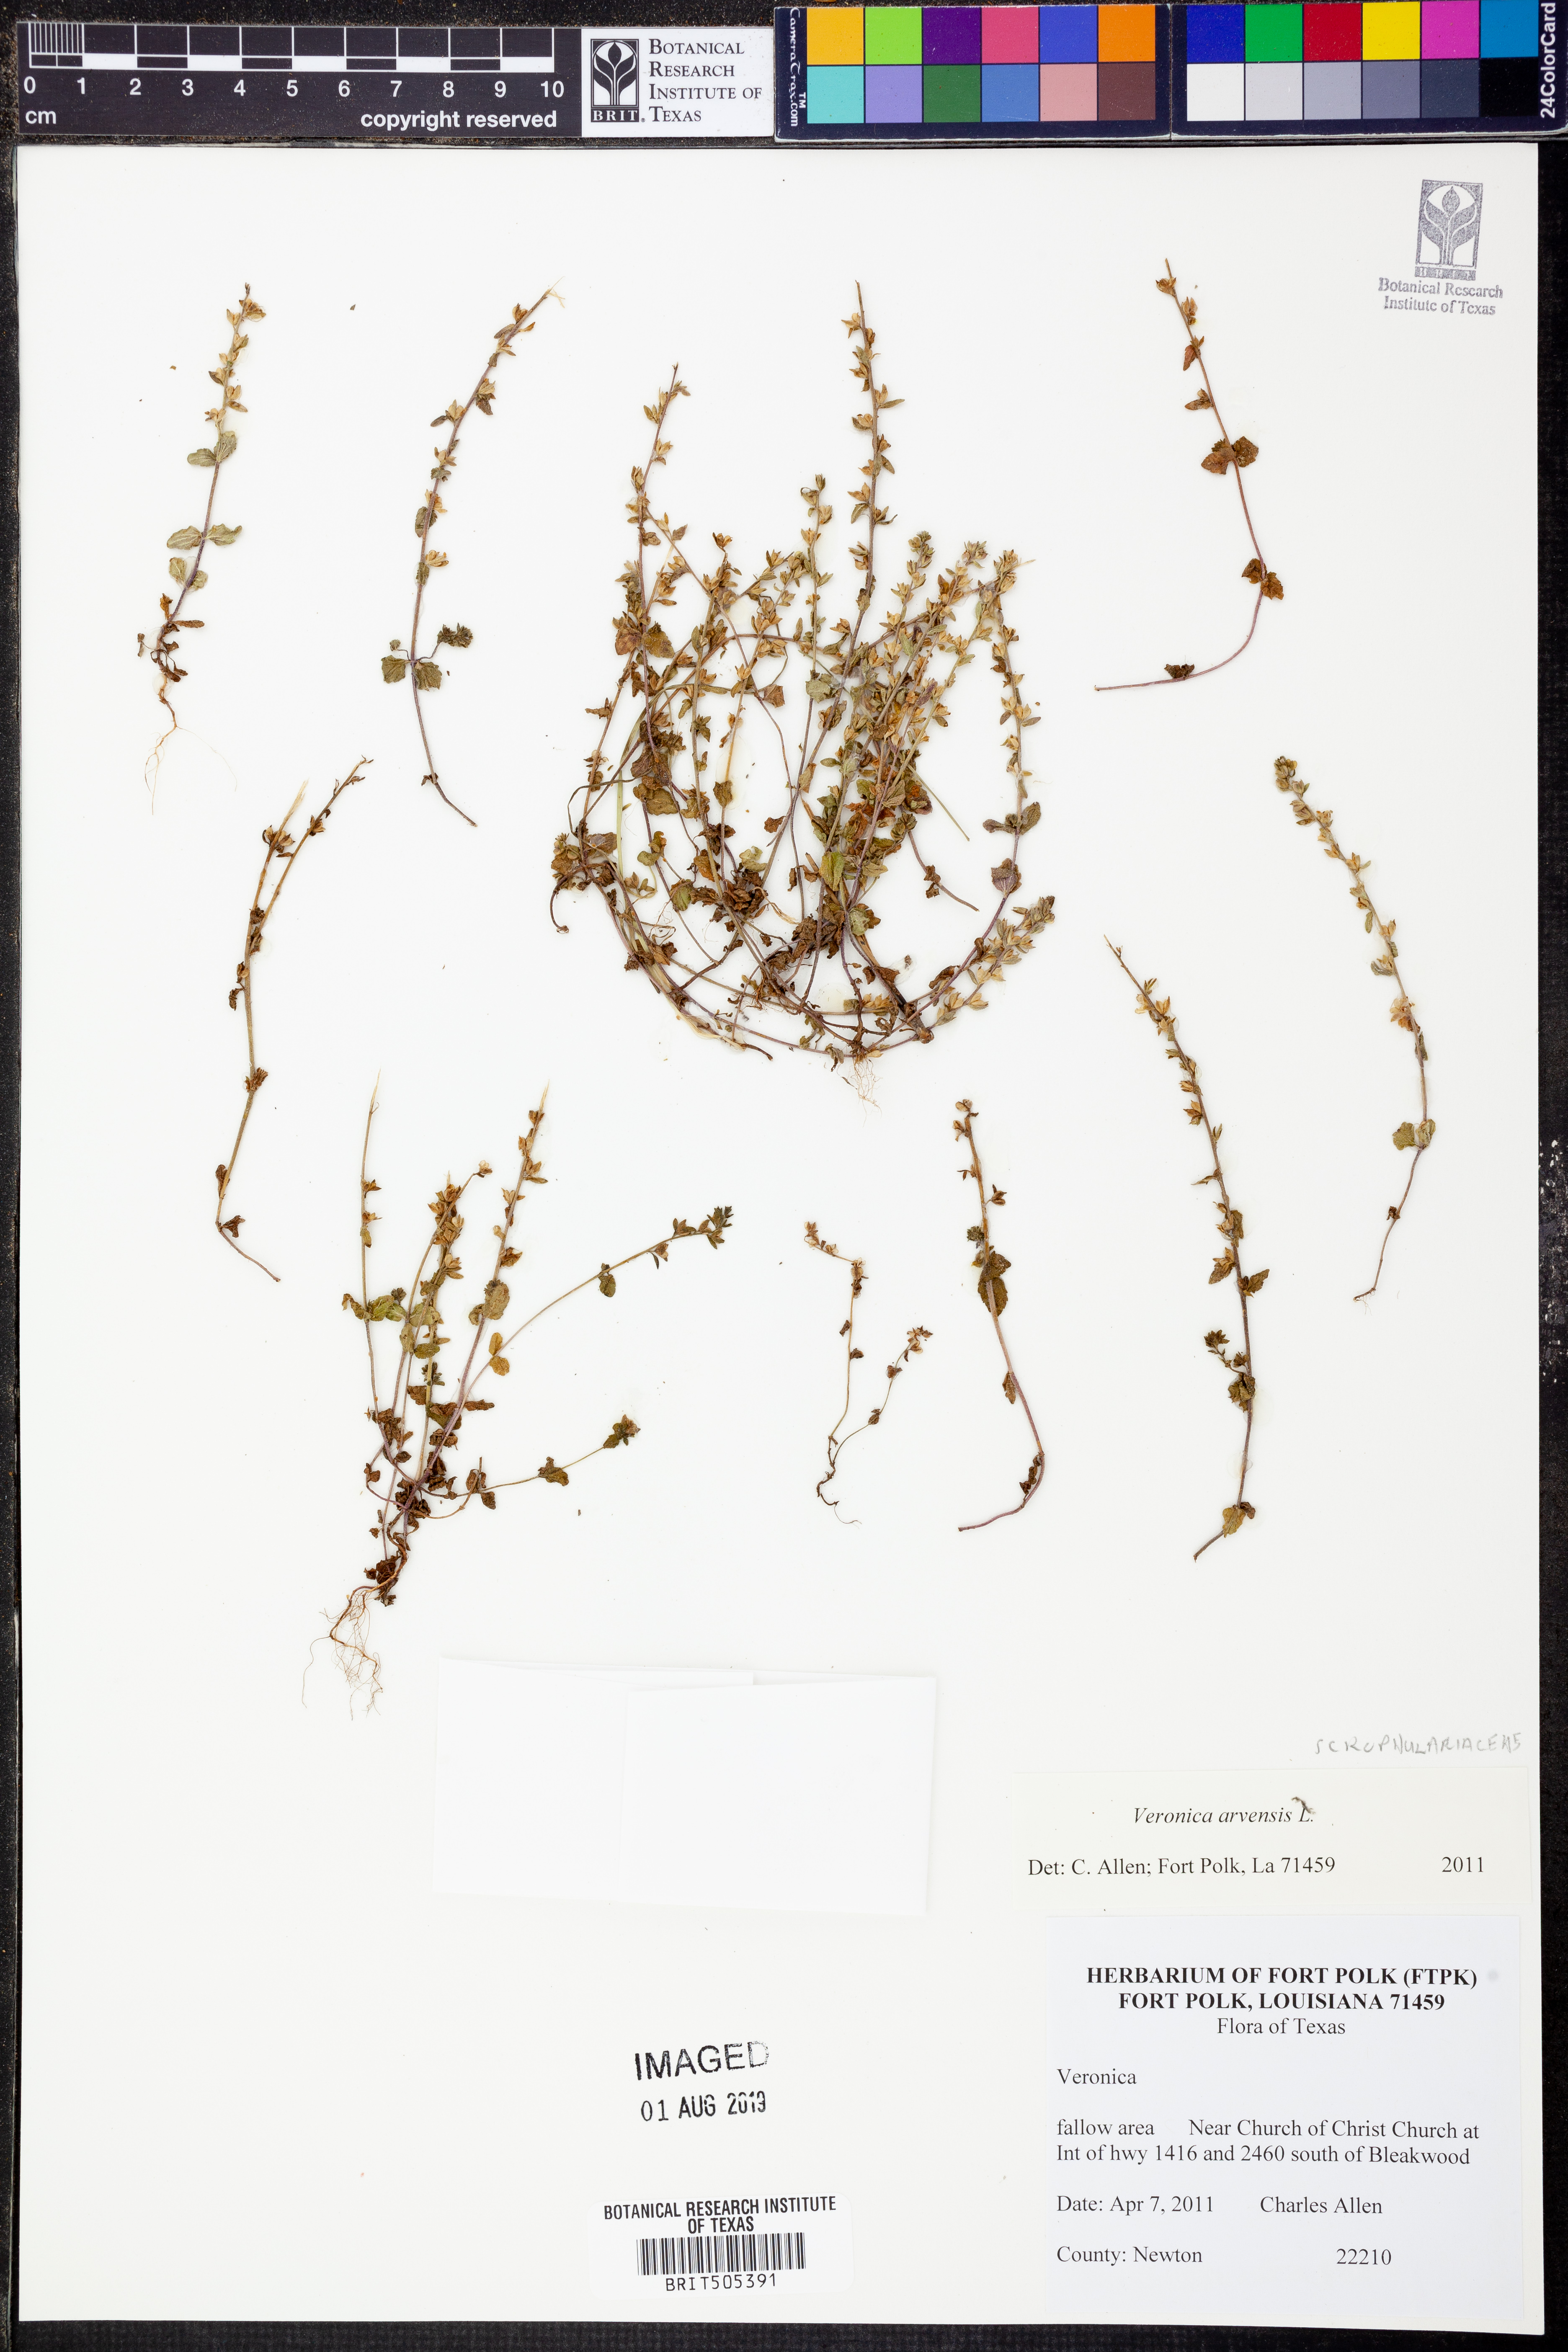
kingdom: Plantae
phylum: Tracheophyta
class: Magnoliopsida
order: Lamiales
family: Plantaginaceae
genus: Veronica
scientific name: Veronica arvensis
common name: Corn speedwell
